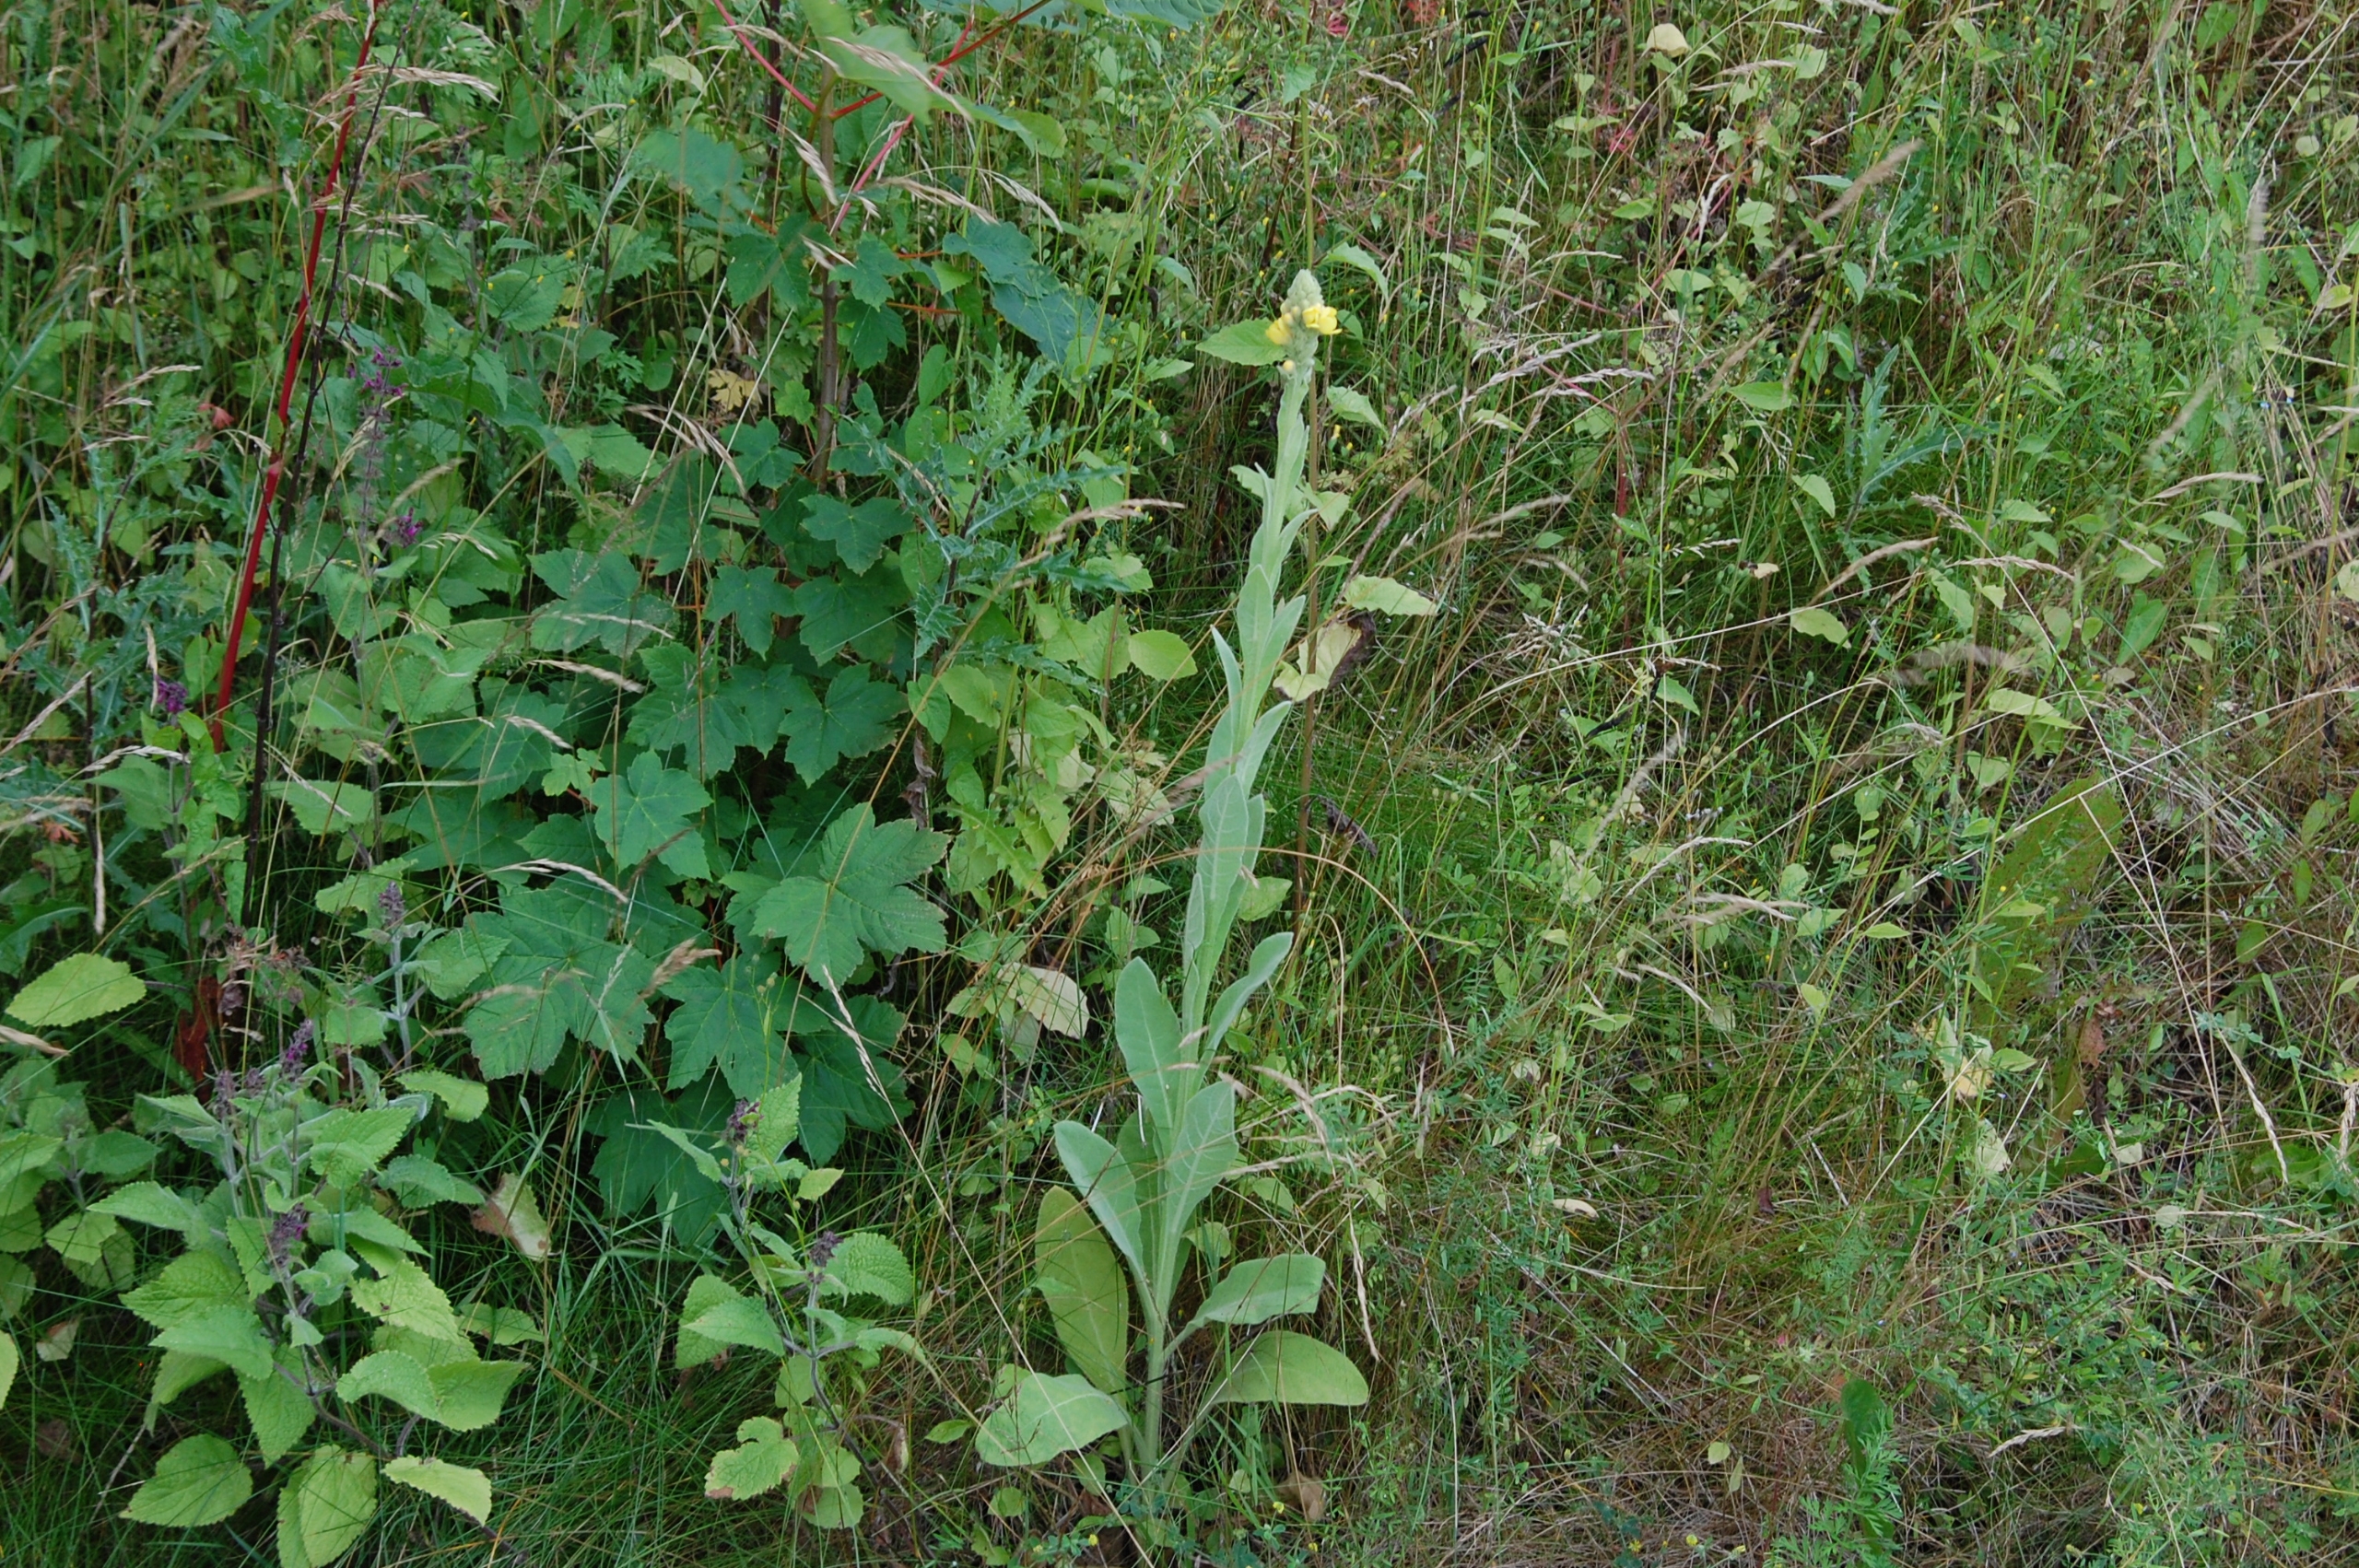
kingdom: Plantae
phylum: Tracheophyta
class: Magnoliopsida
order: Lamiales
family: Scrophulariaceae
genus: Verbascum
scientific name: Verbascum thapsus
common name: Filtbladet kongelys
